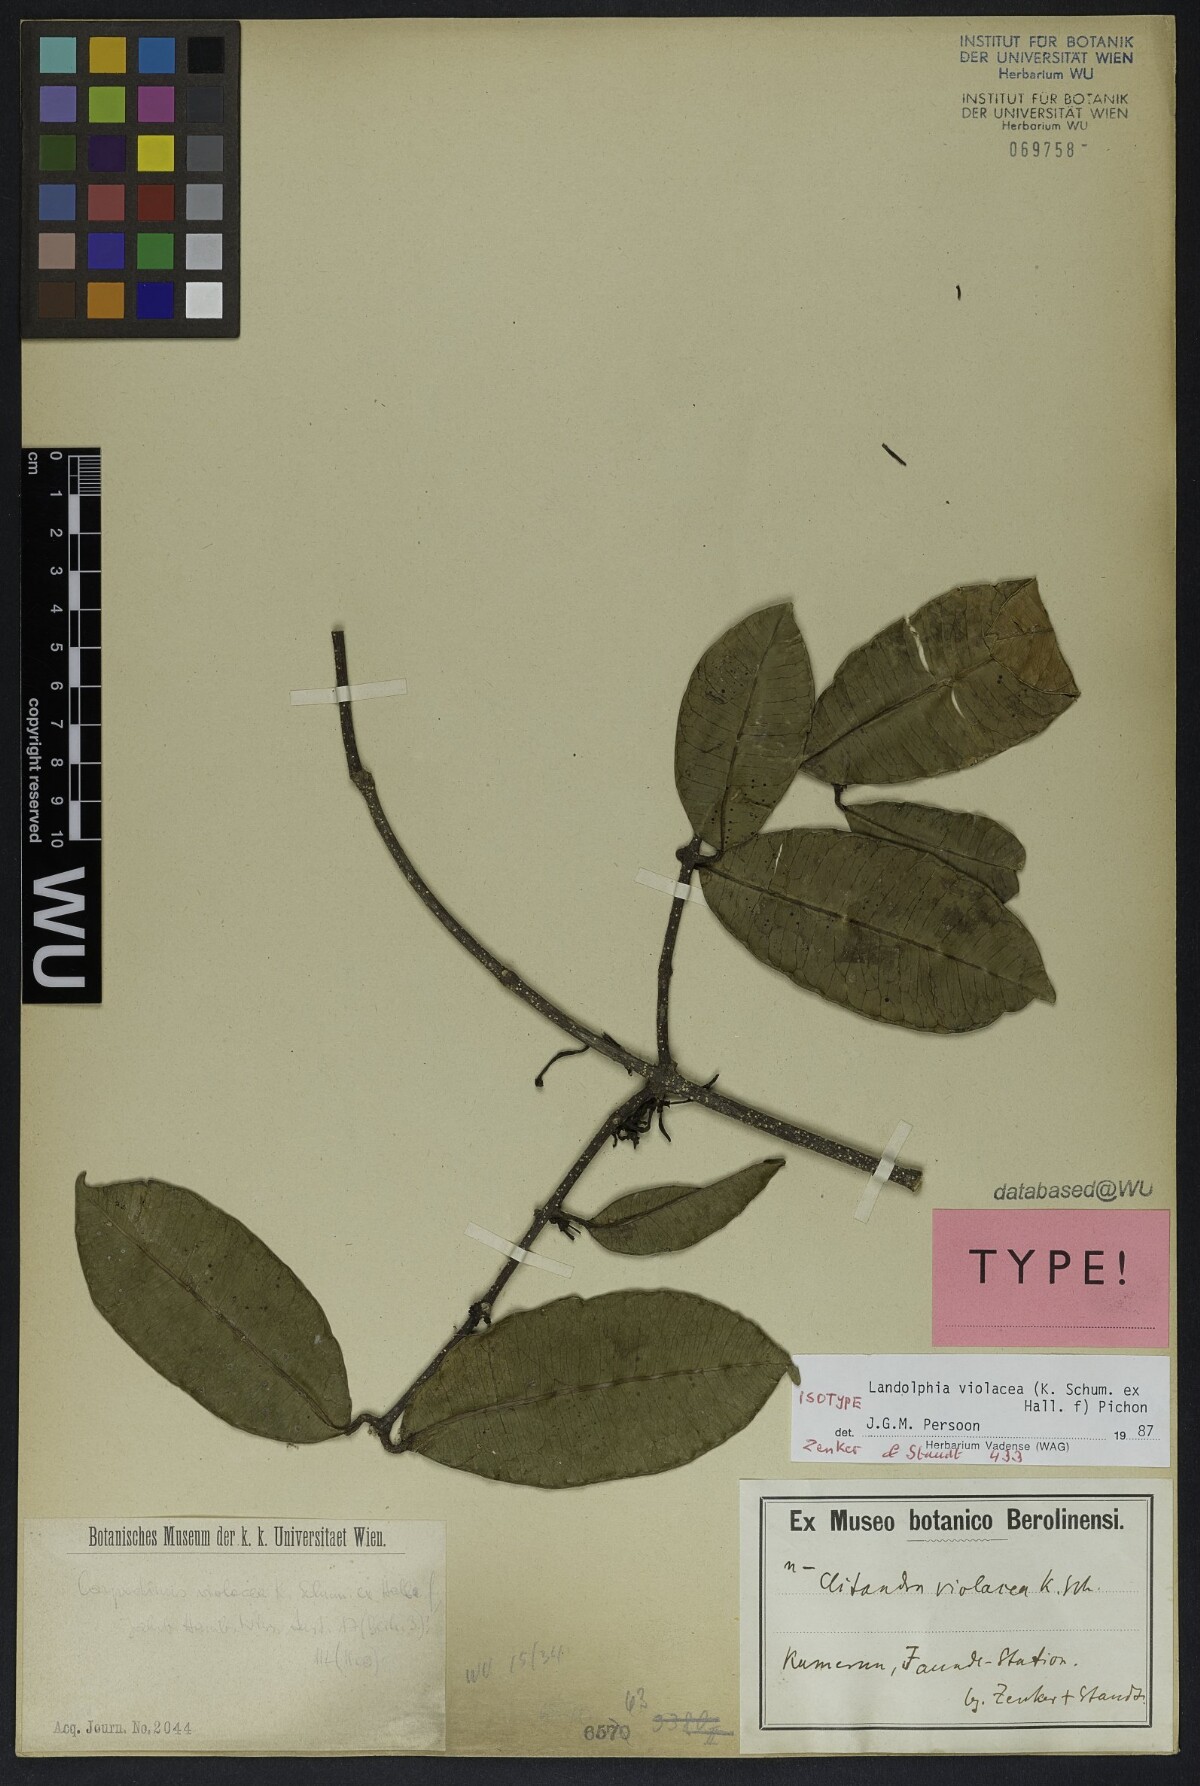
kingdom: Plantae
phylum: Tracheophyta
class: Magnoliopsida
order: Gentianales
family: Apocynaceae
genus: Landolphia
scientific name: Landolphia violacea
